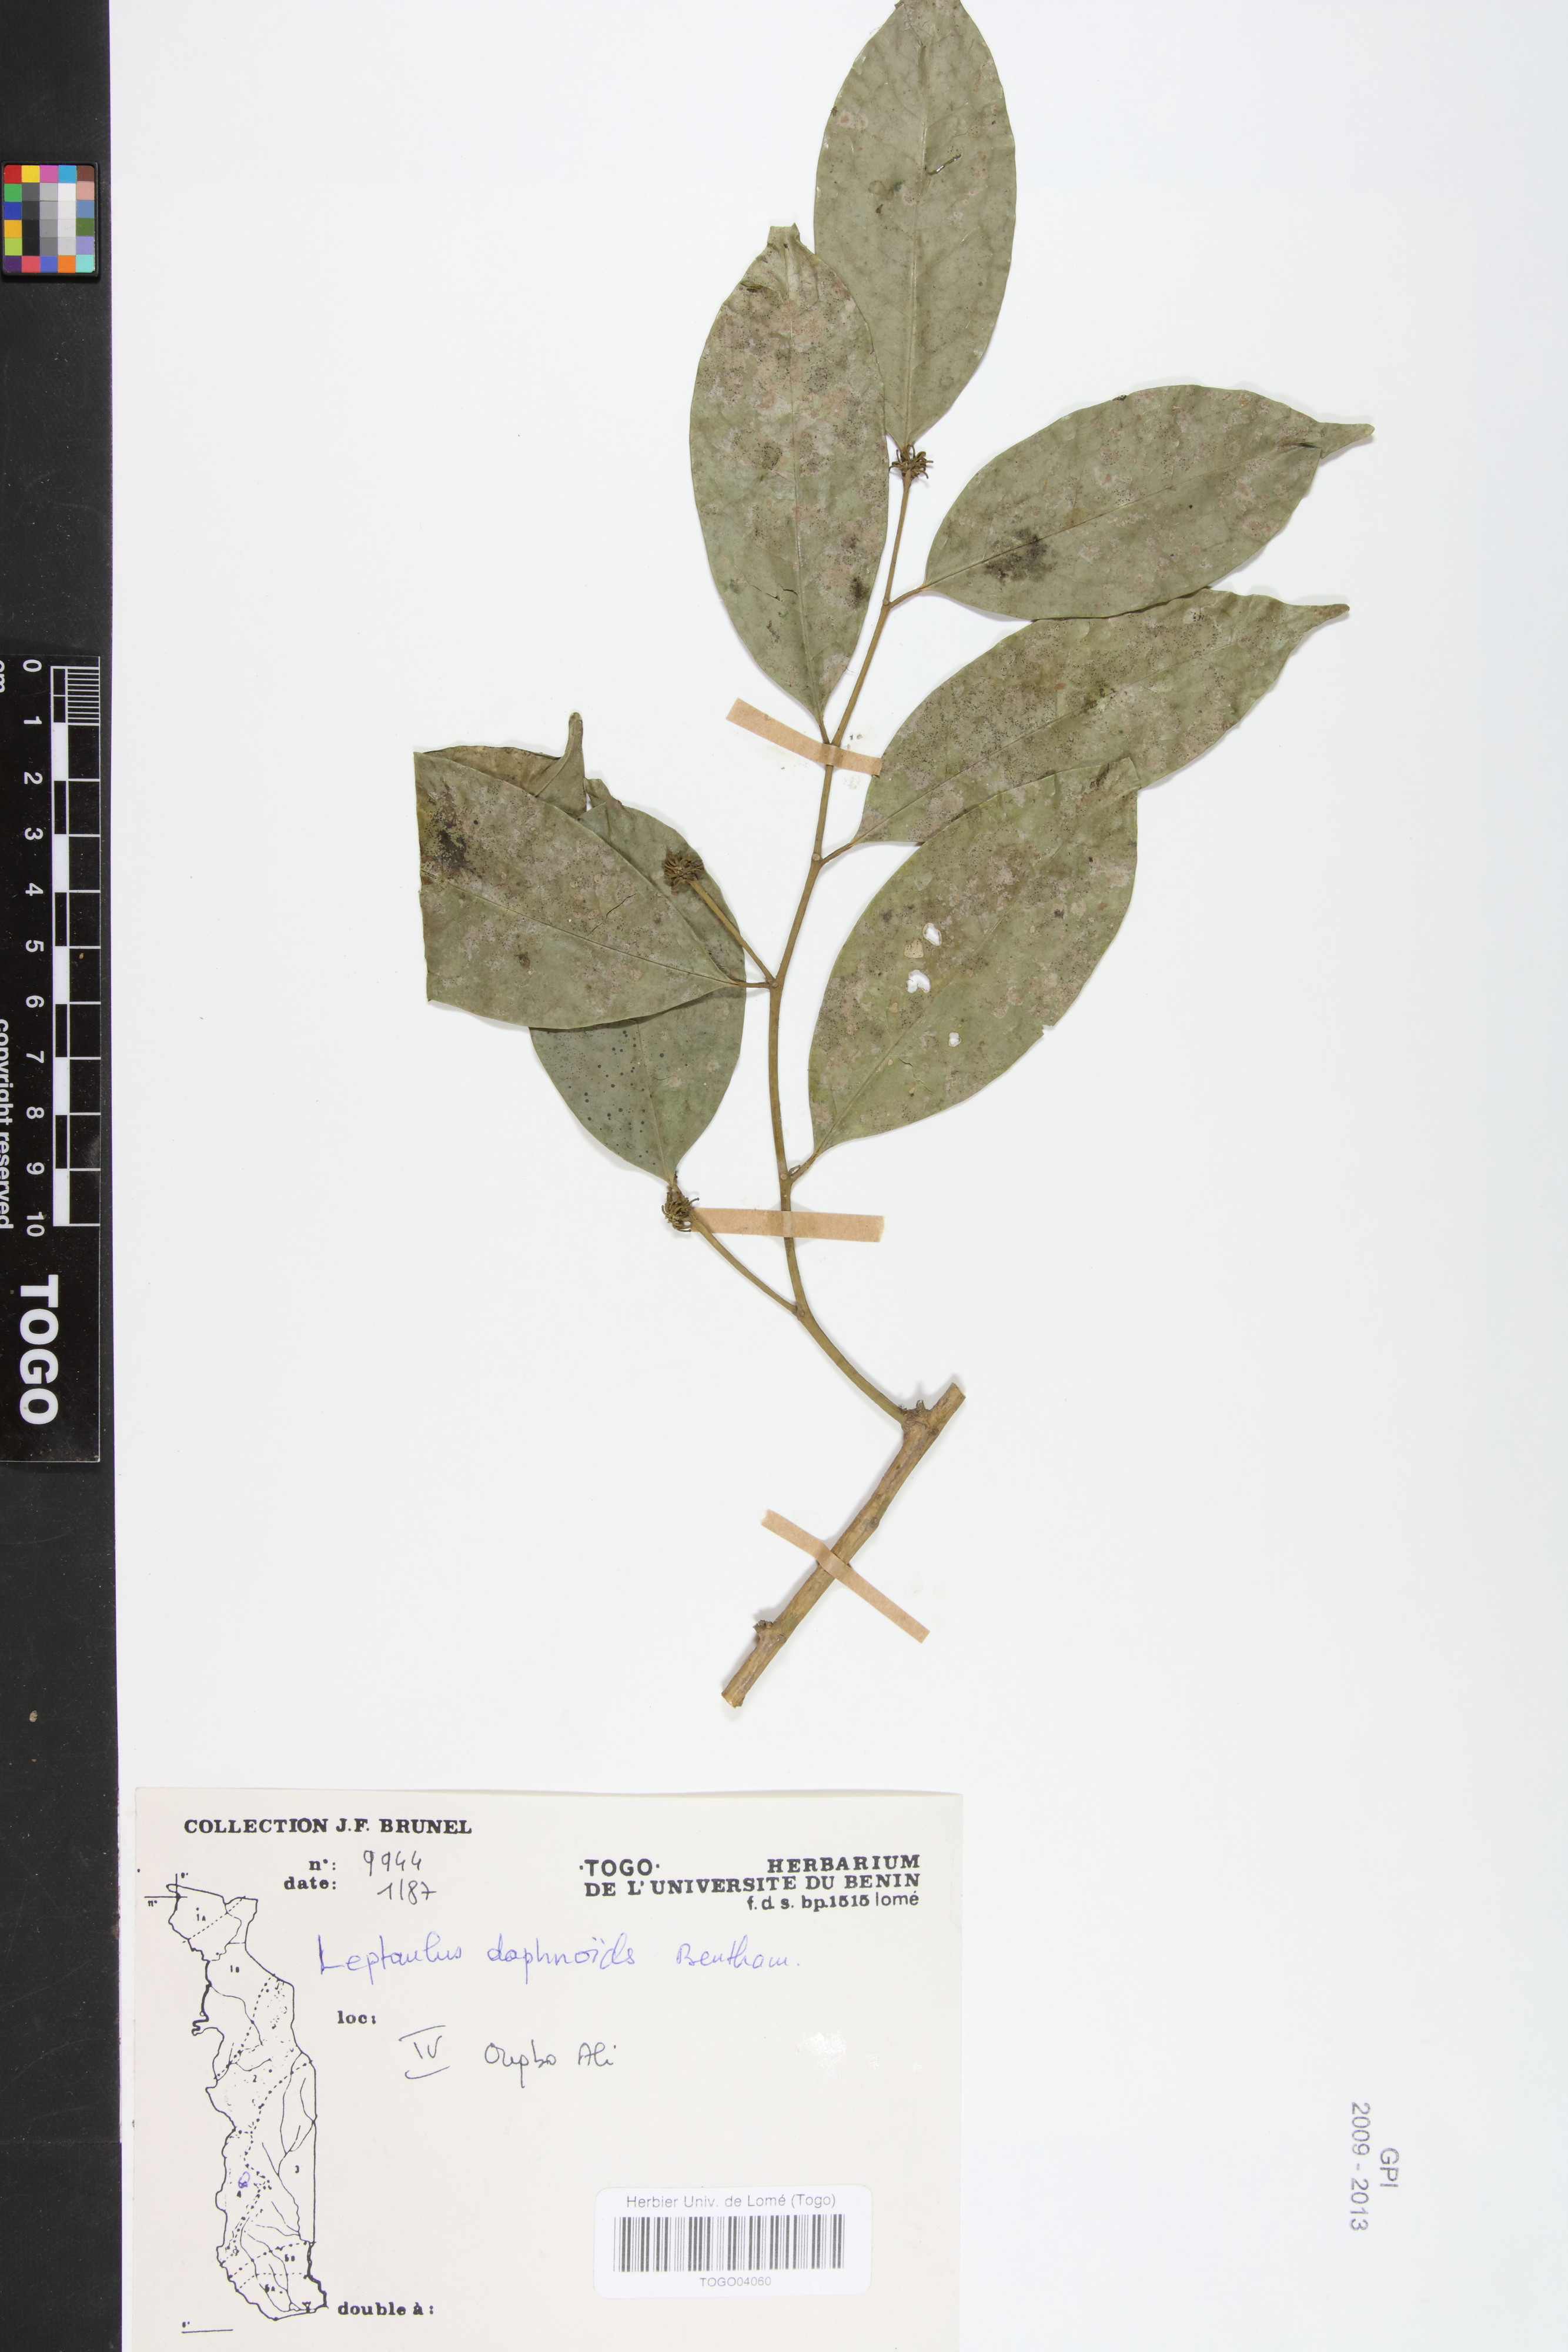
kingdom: Plantae
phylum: Tracheophyta
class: Magnoliopsida
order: Cardiopteridales
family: Cardiopteridaceae
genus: Leptaulus
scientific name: Leptaulus daphnoides
